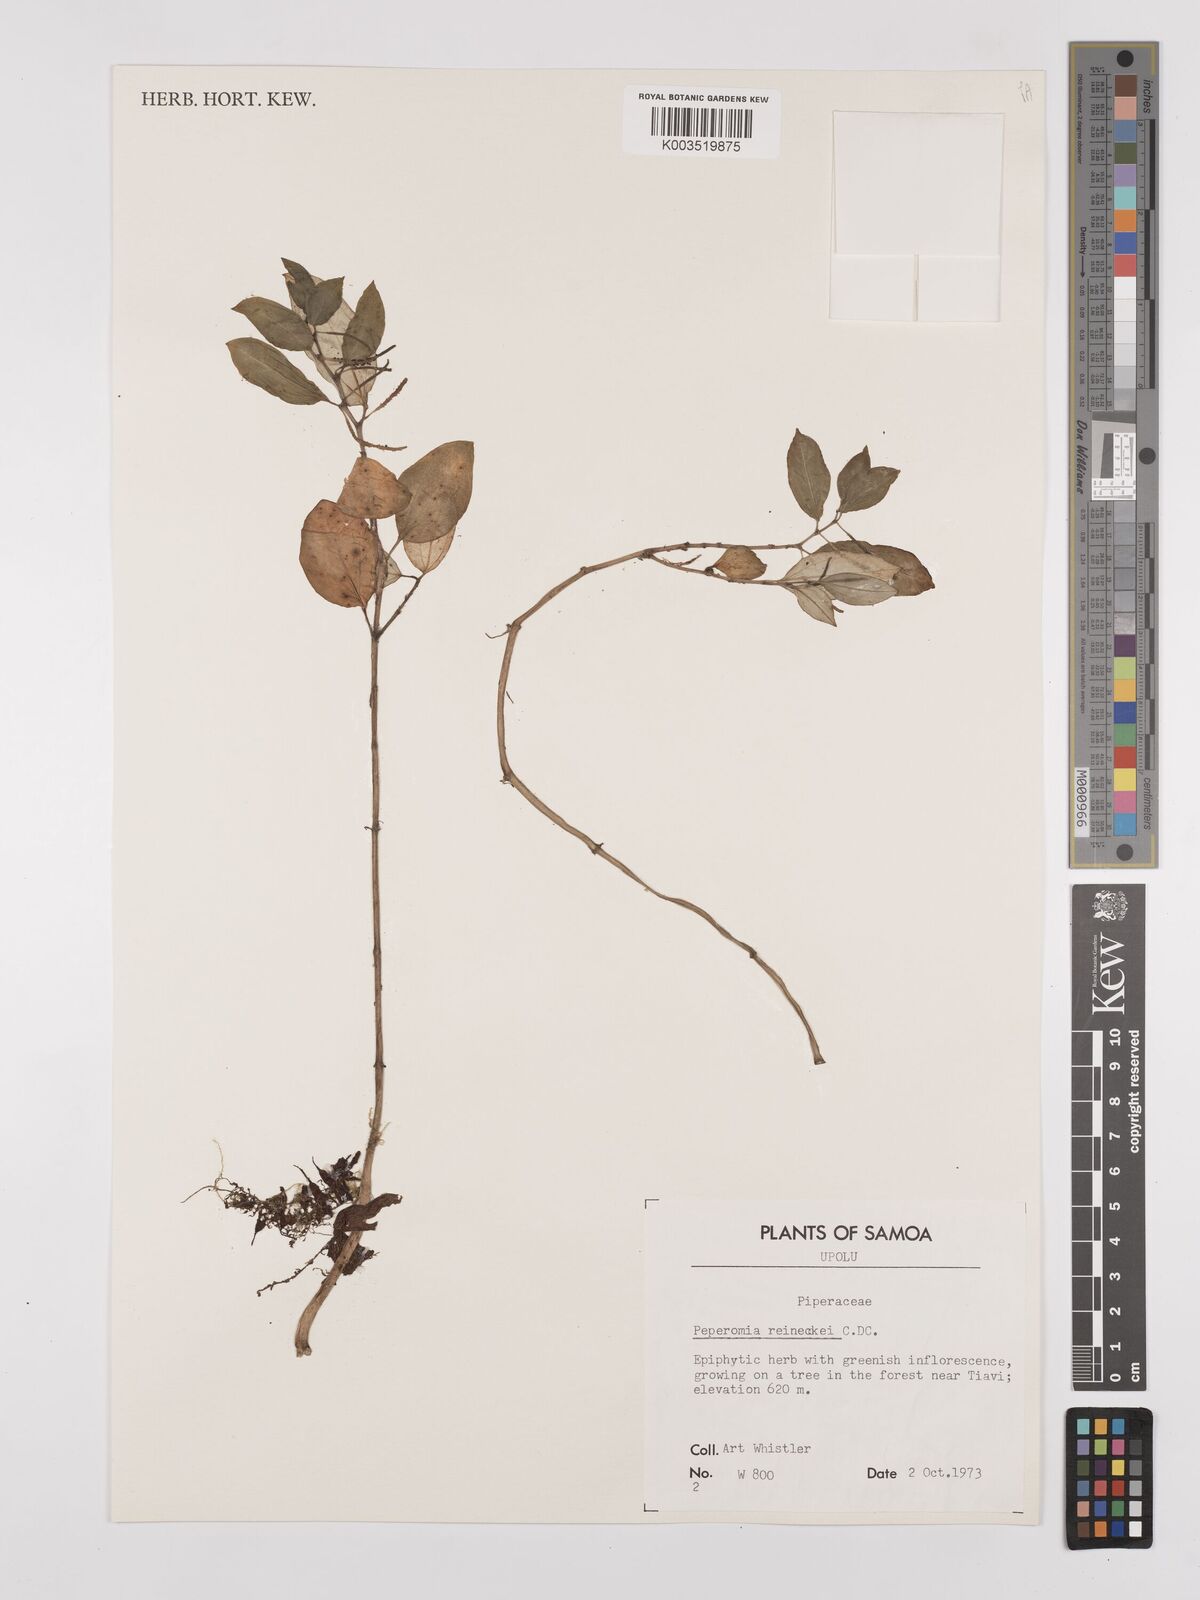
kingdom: Plantae
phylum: Tracheophyta
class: Magnoliopsida
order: Piperales
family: Piperaceae
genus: Peperomia
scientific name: Peperomia reineckei
